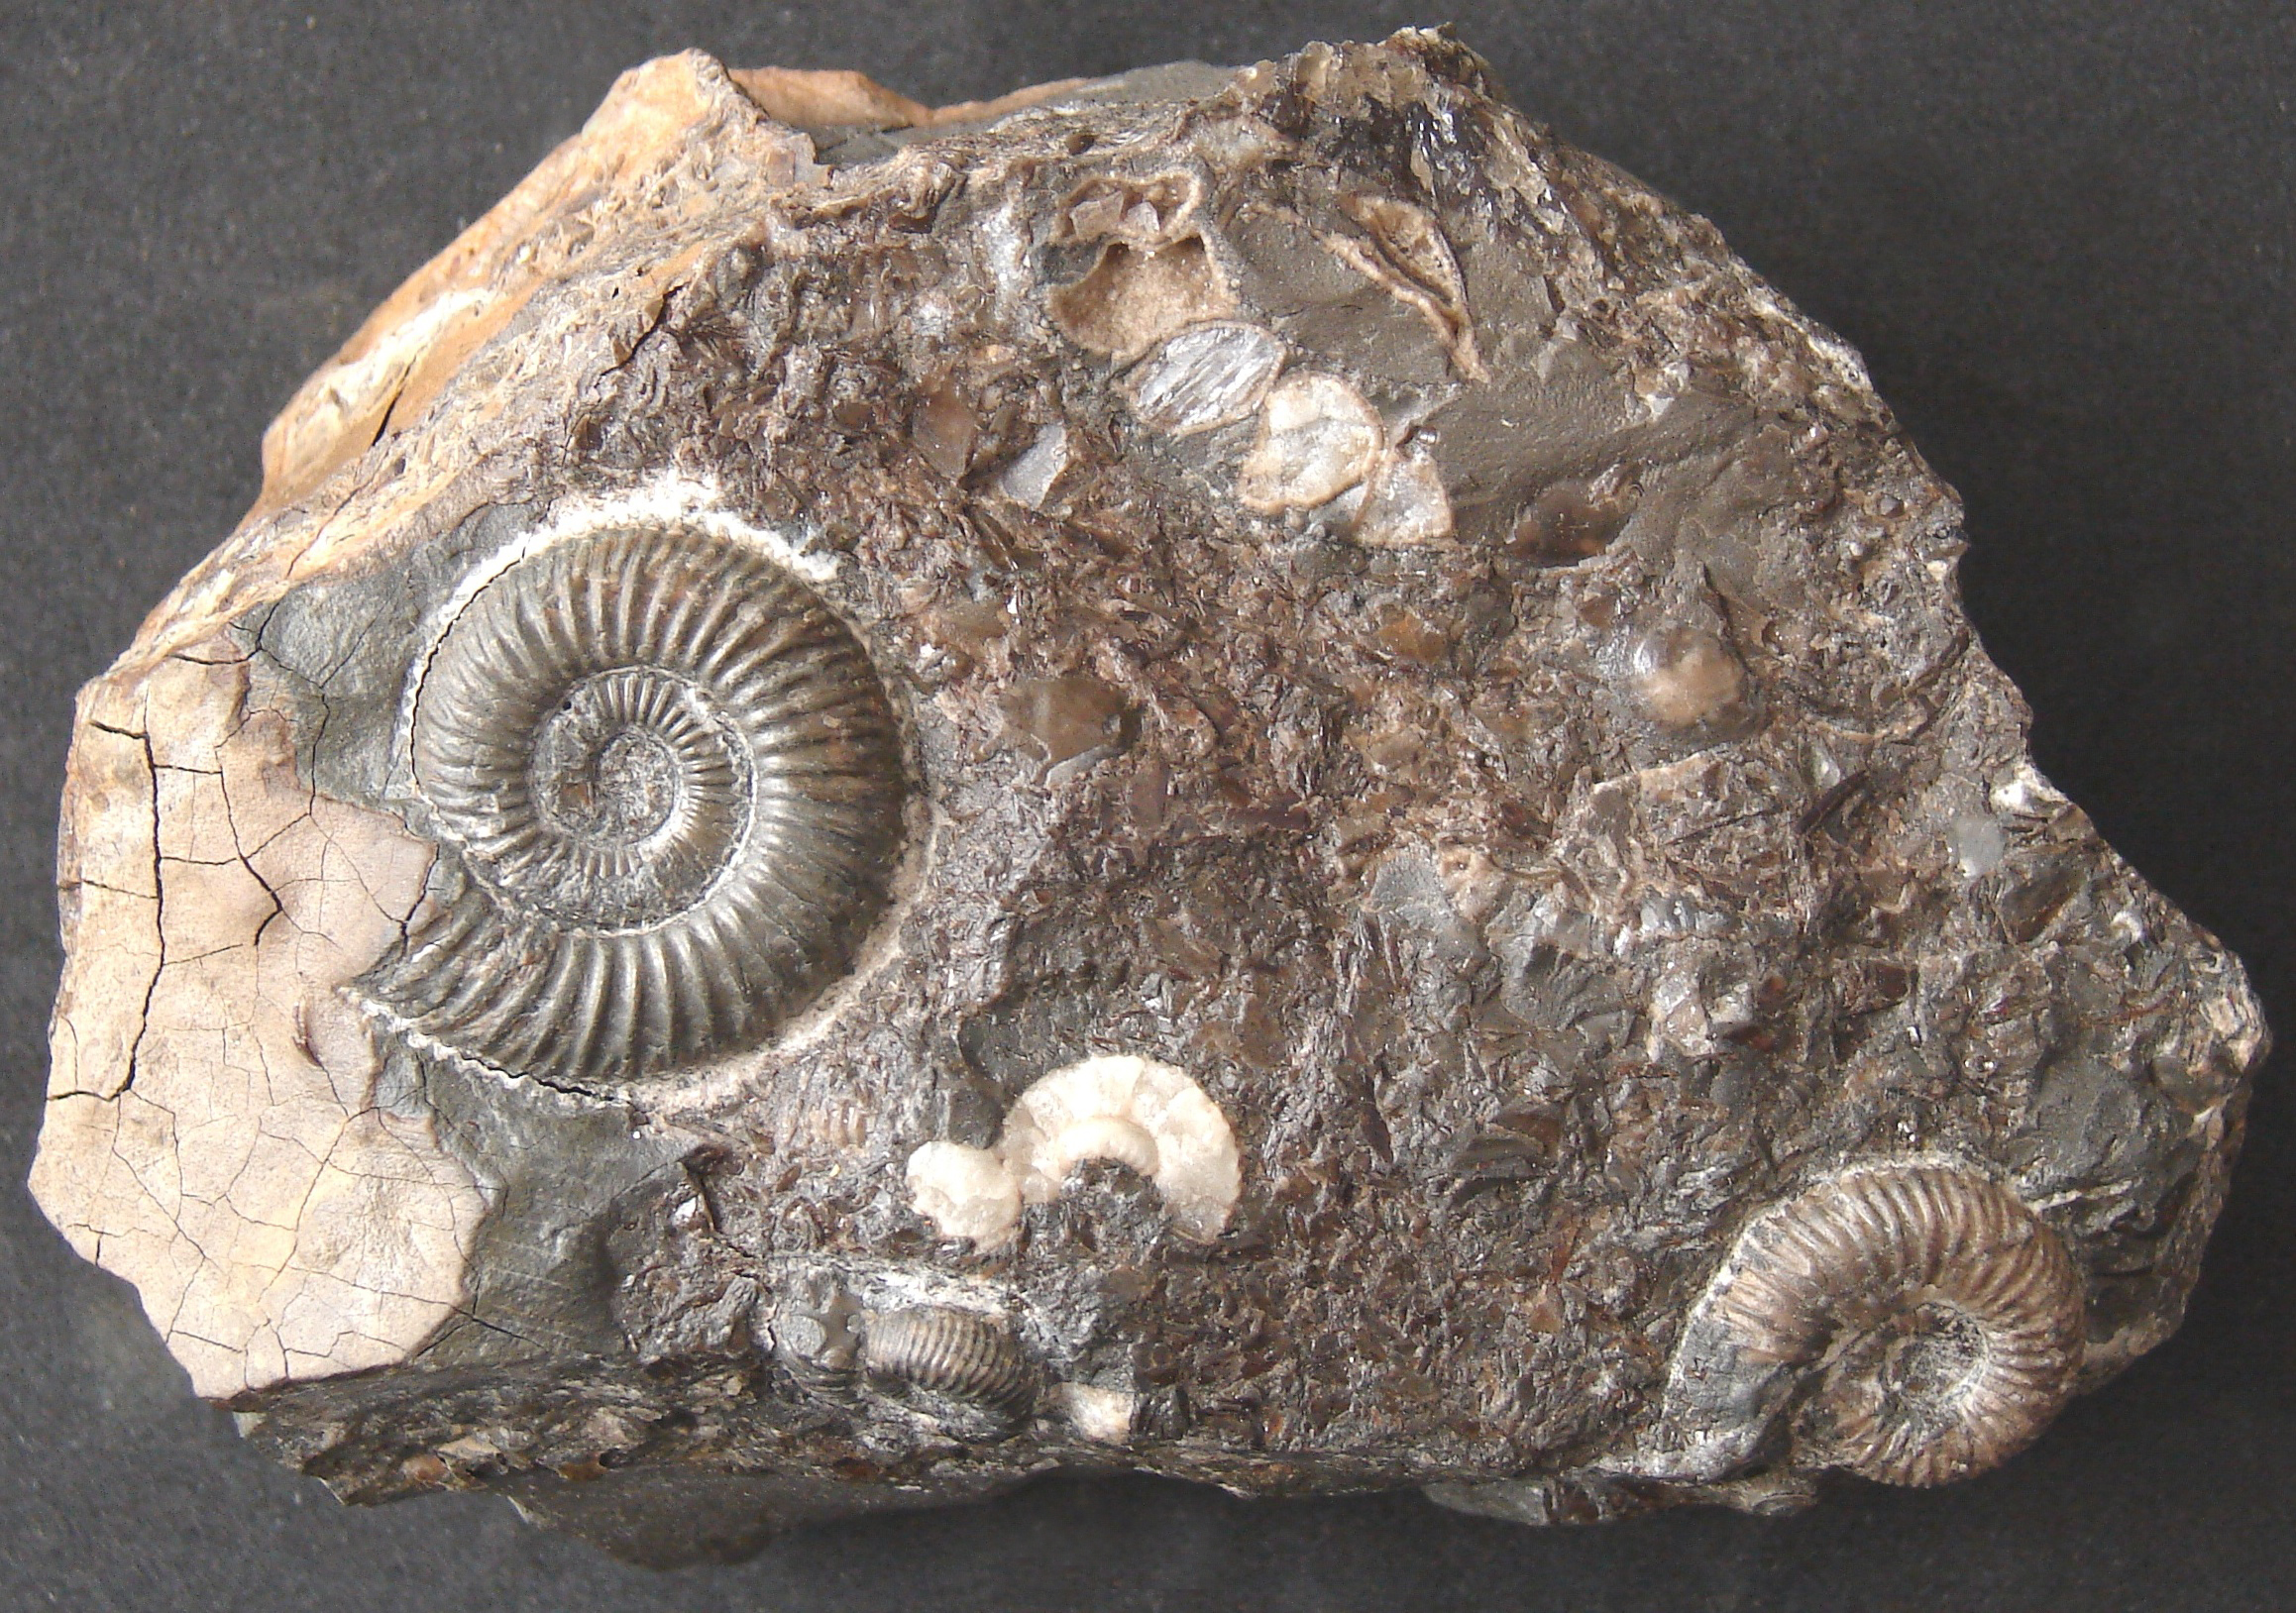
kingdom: Animalia
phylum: Mollusca
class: Cephalopoda
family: Dactylioceratidae
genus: Dactylioceras
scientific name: Dactylioceras
